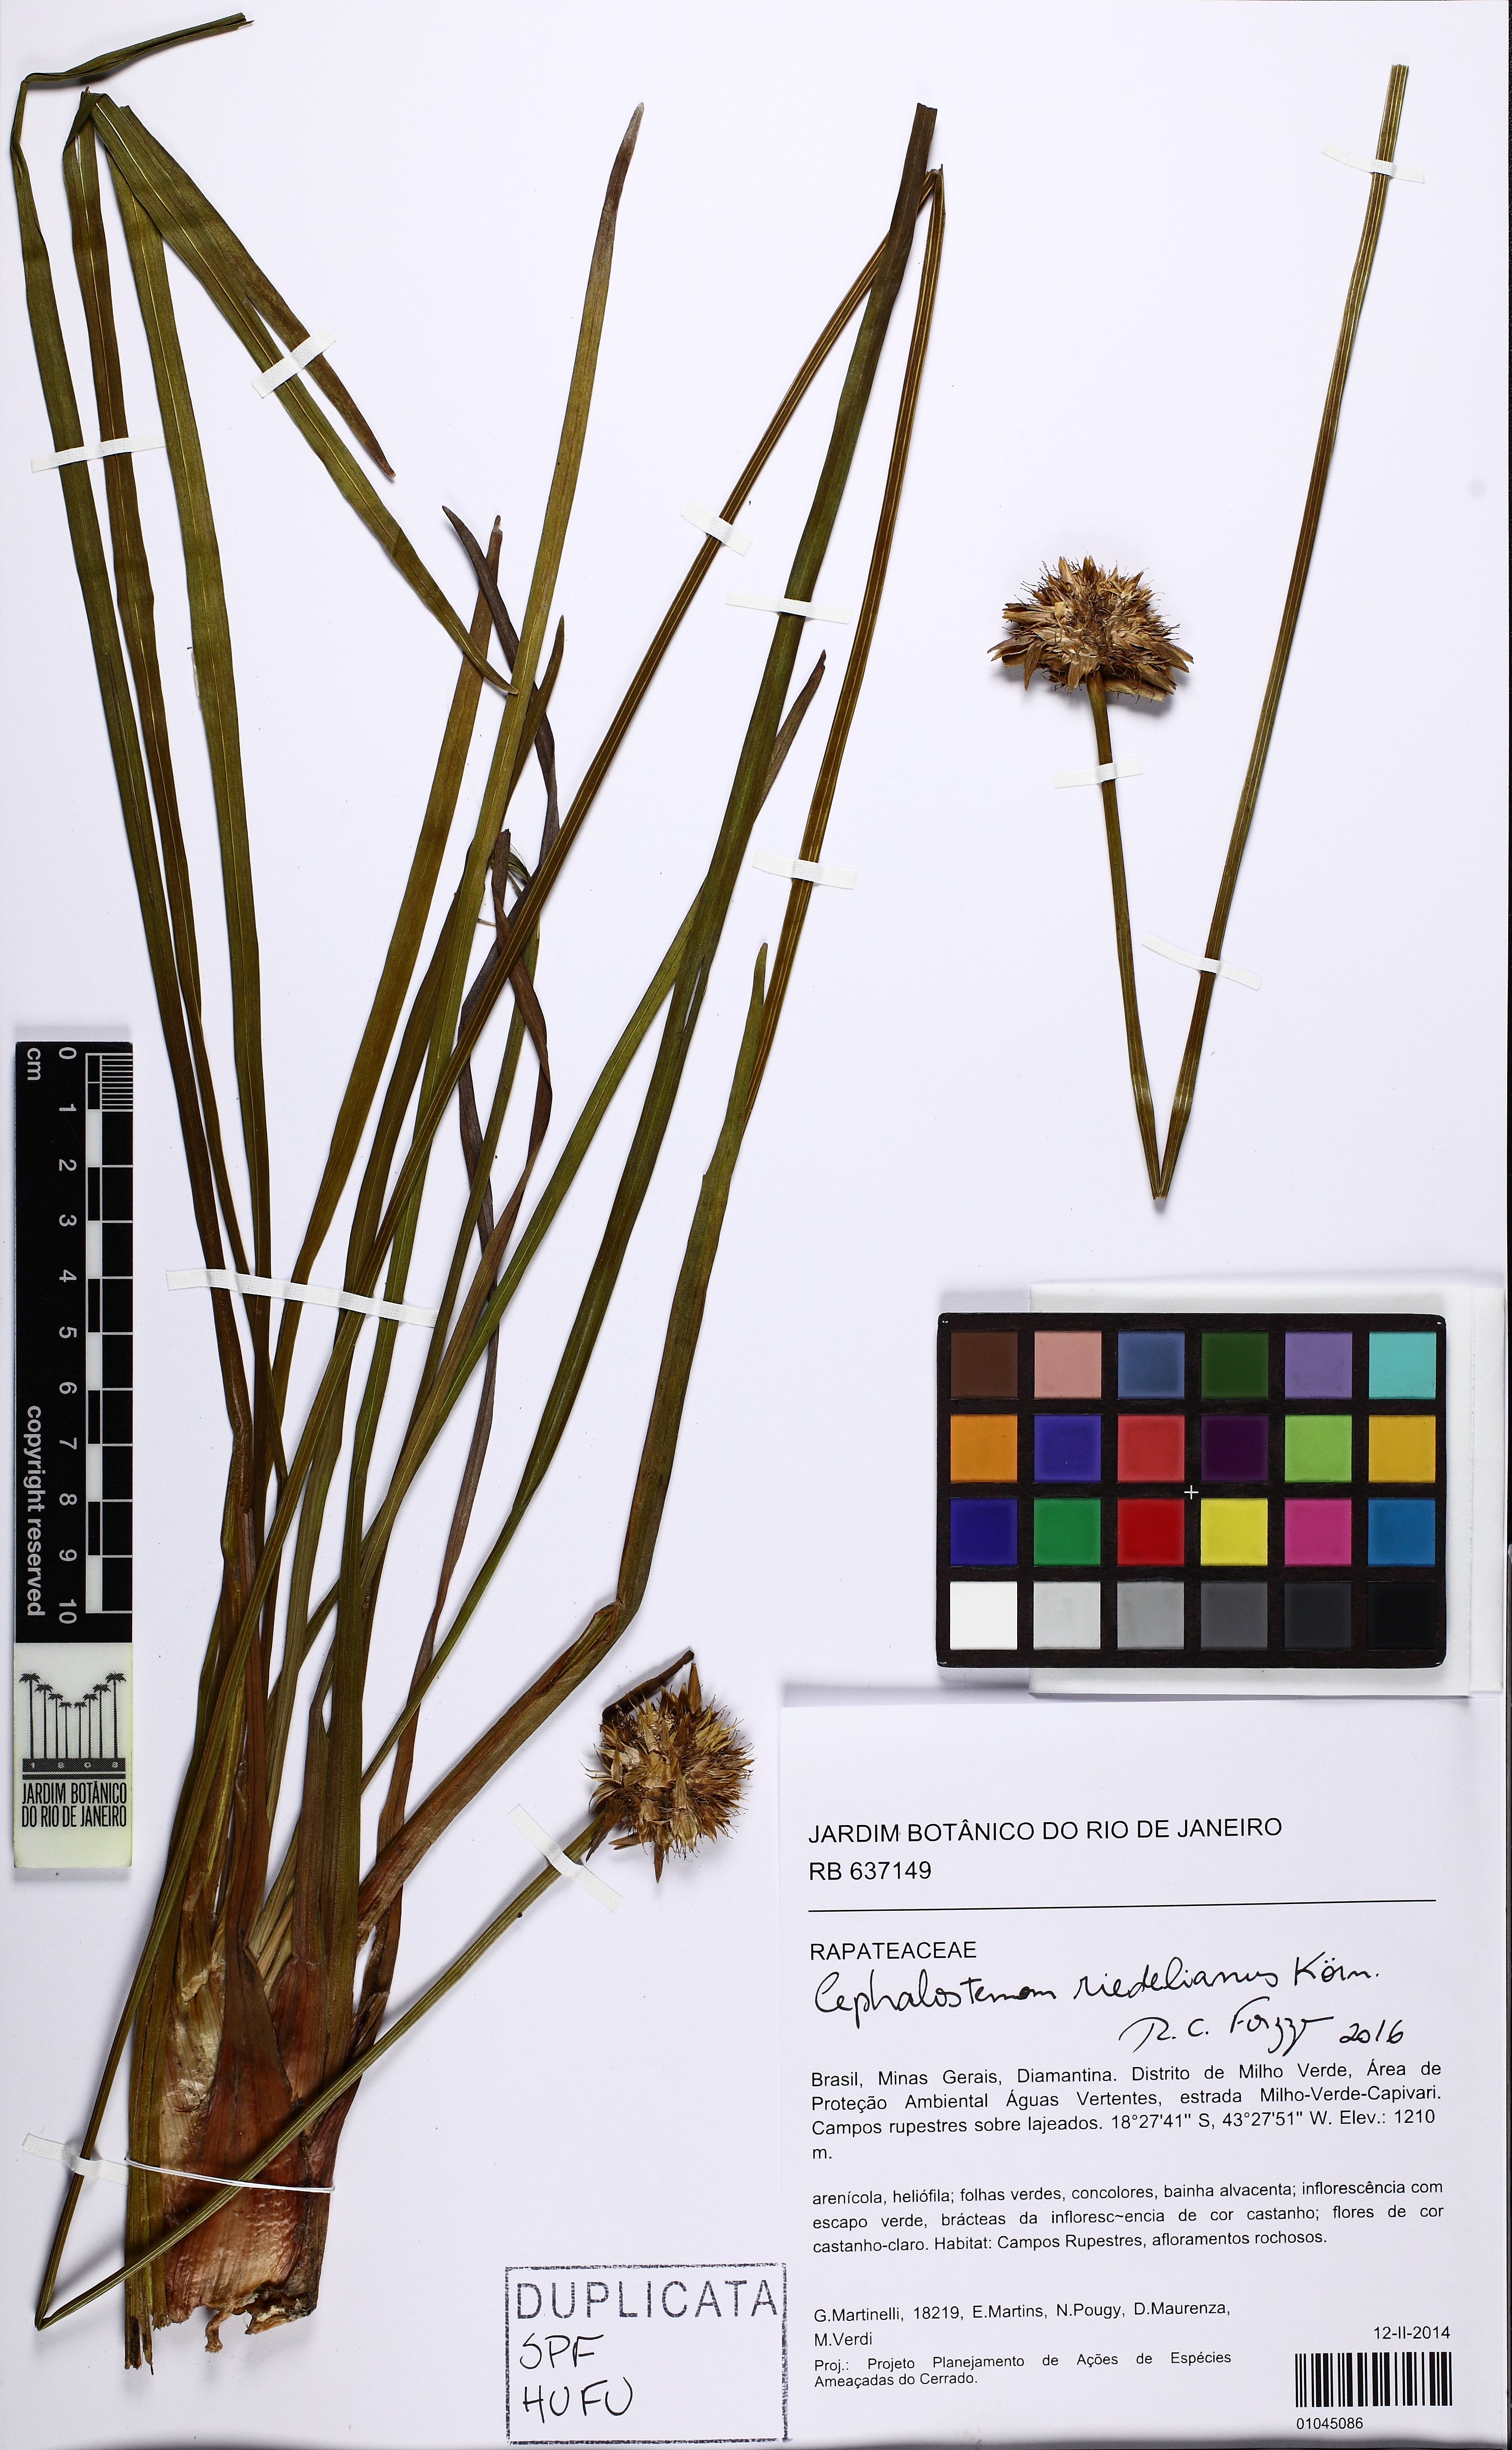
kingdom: Plantae
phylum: Tracheophyta
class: Liliopsida
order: Poales
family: Rapateaceae
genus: Cephalostemon
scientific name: Cephalostemon riedelianus
